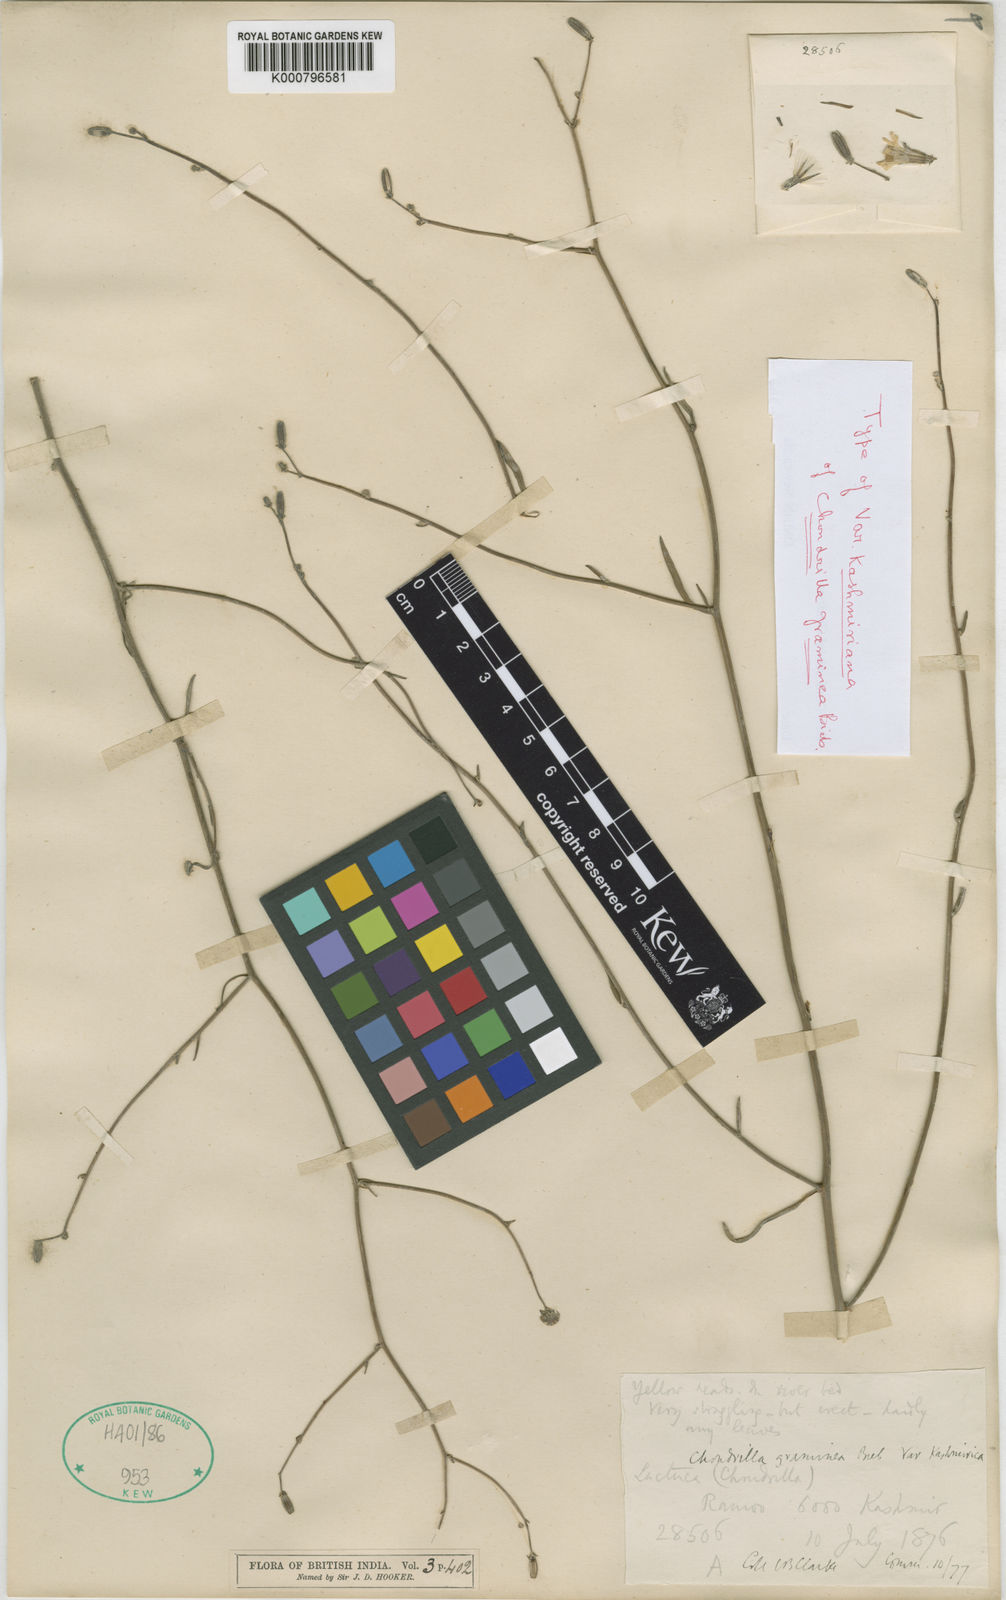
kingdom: Plantae
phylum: Tracheophyta
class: Magnoliopsida
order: Asterales
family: Asteraceae
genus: Chondrilla
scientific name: Chondrilla graminea
